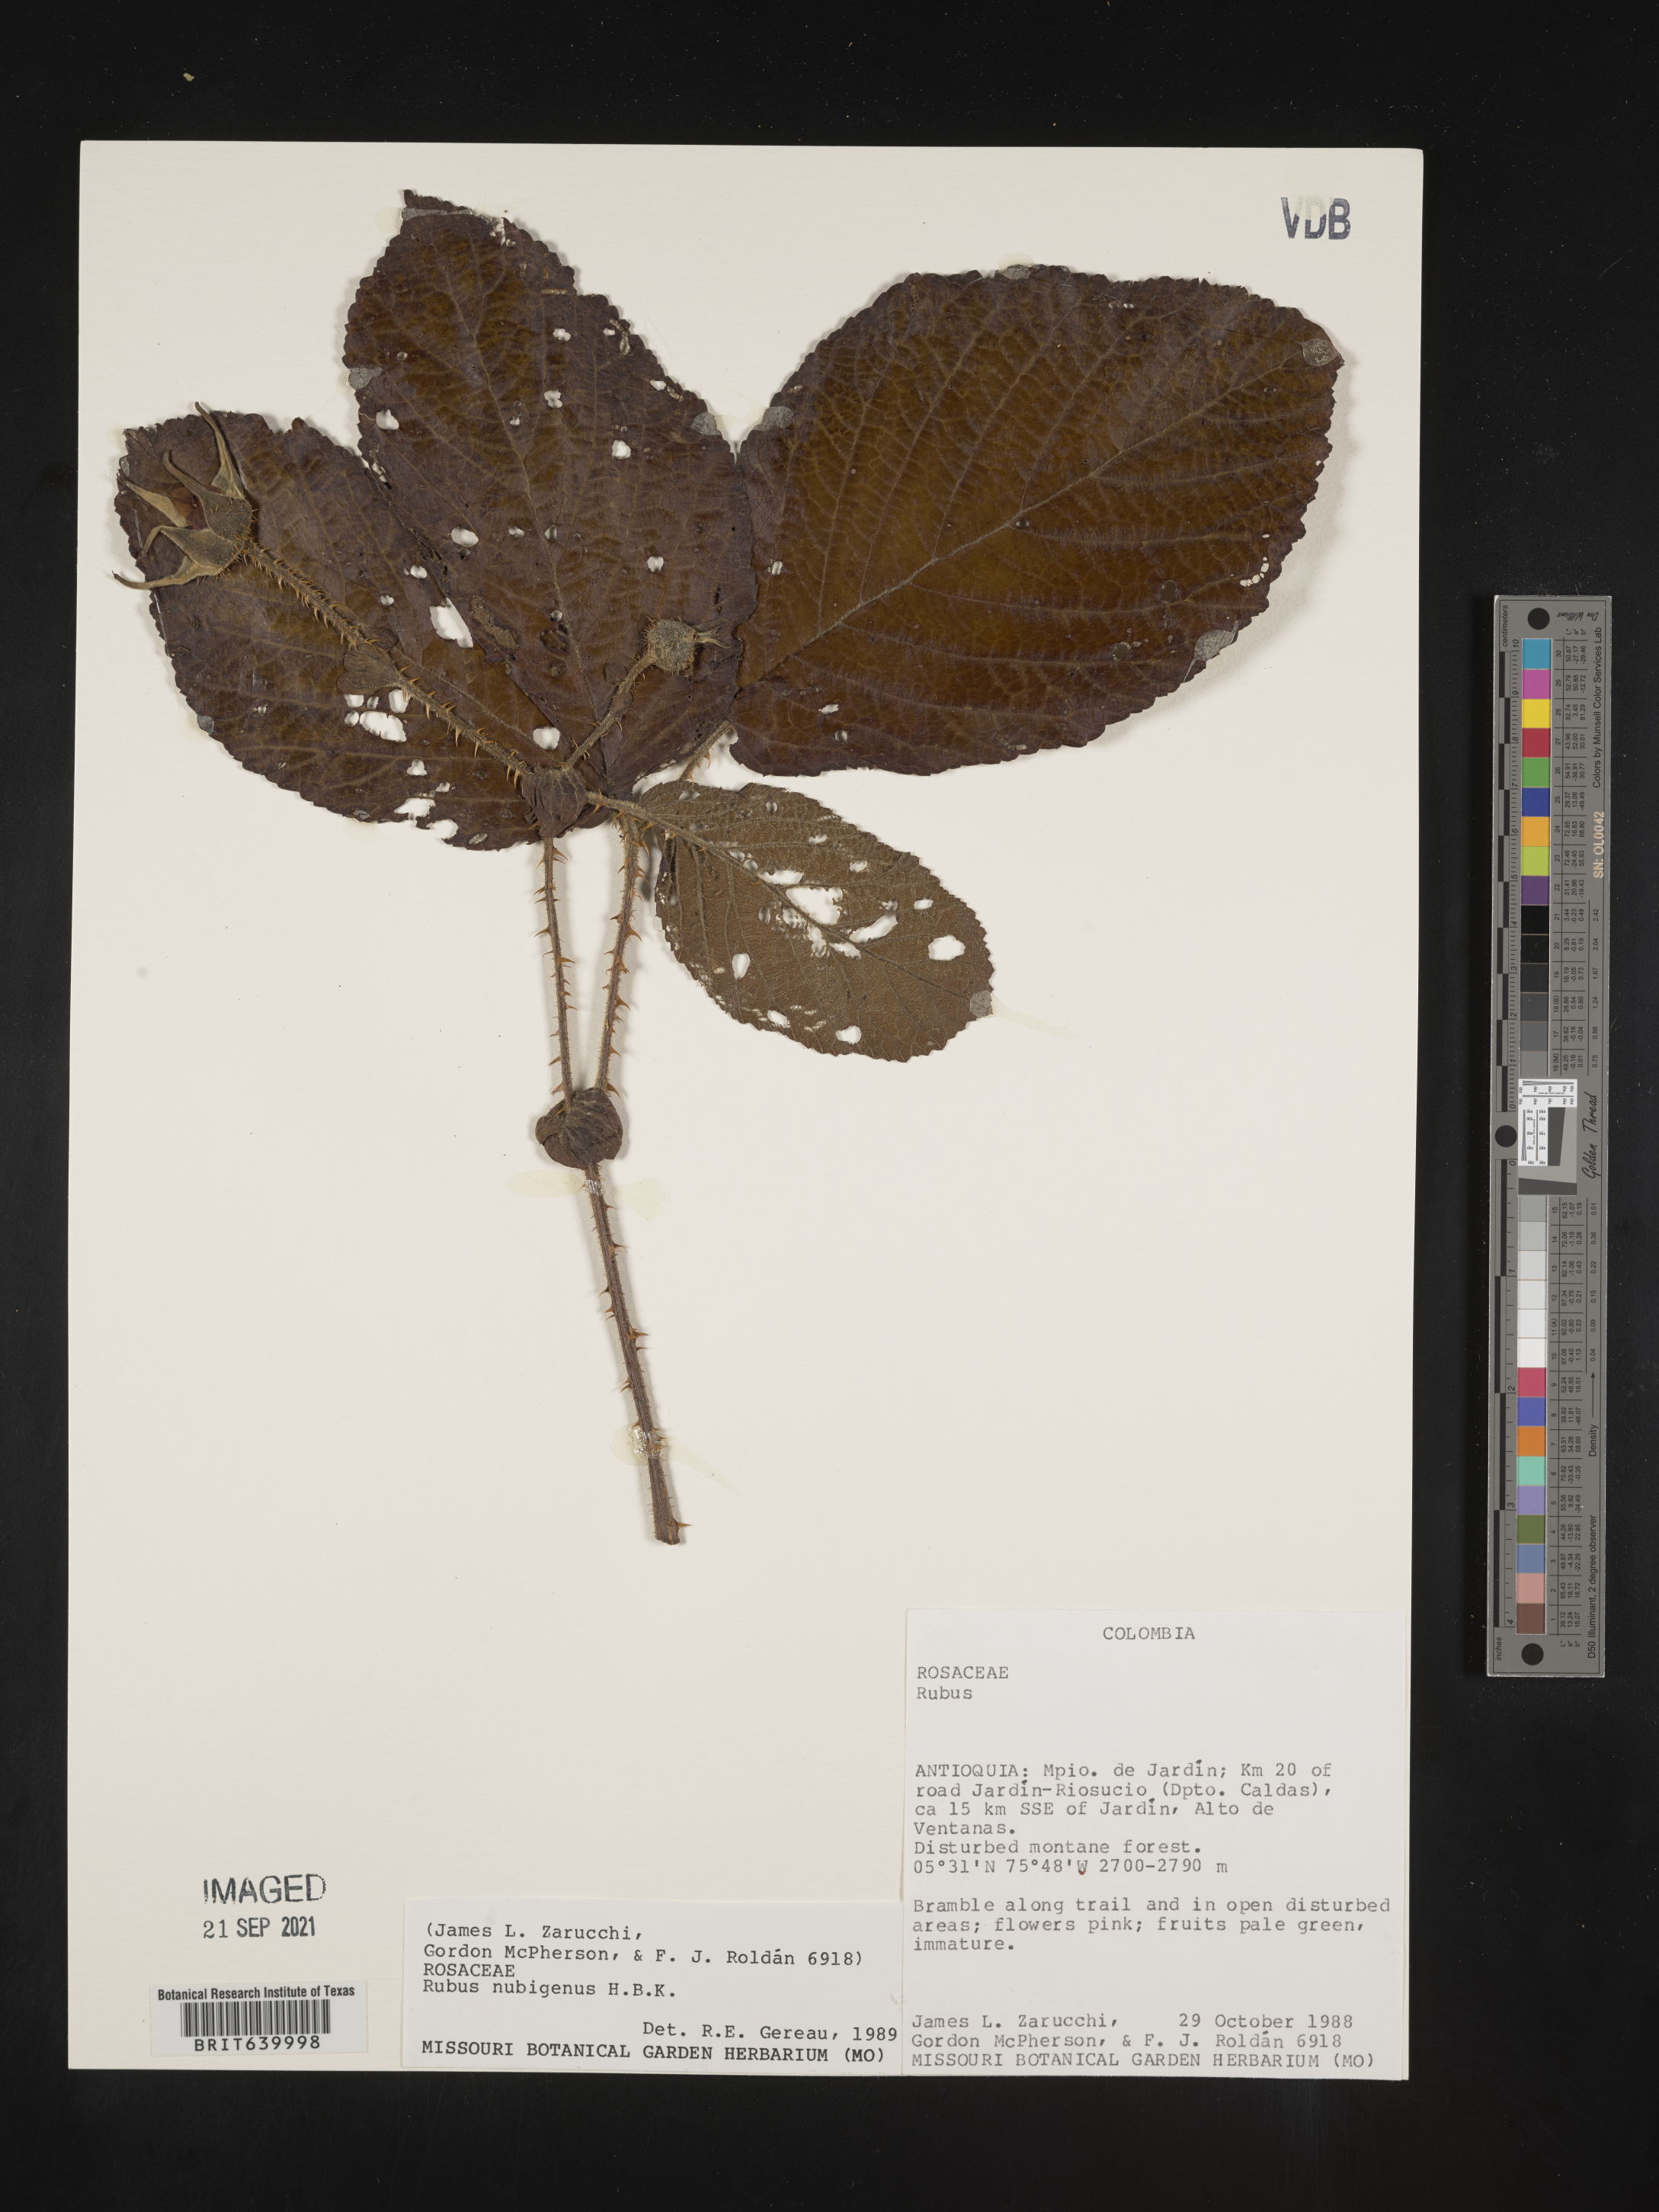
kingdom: Plantae
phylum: Tracheophyta
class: Magnoliopsida
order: Rosales
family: Rosaceae
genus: Rubus
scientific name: Rubus
